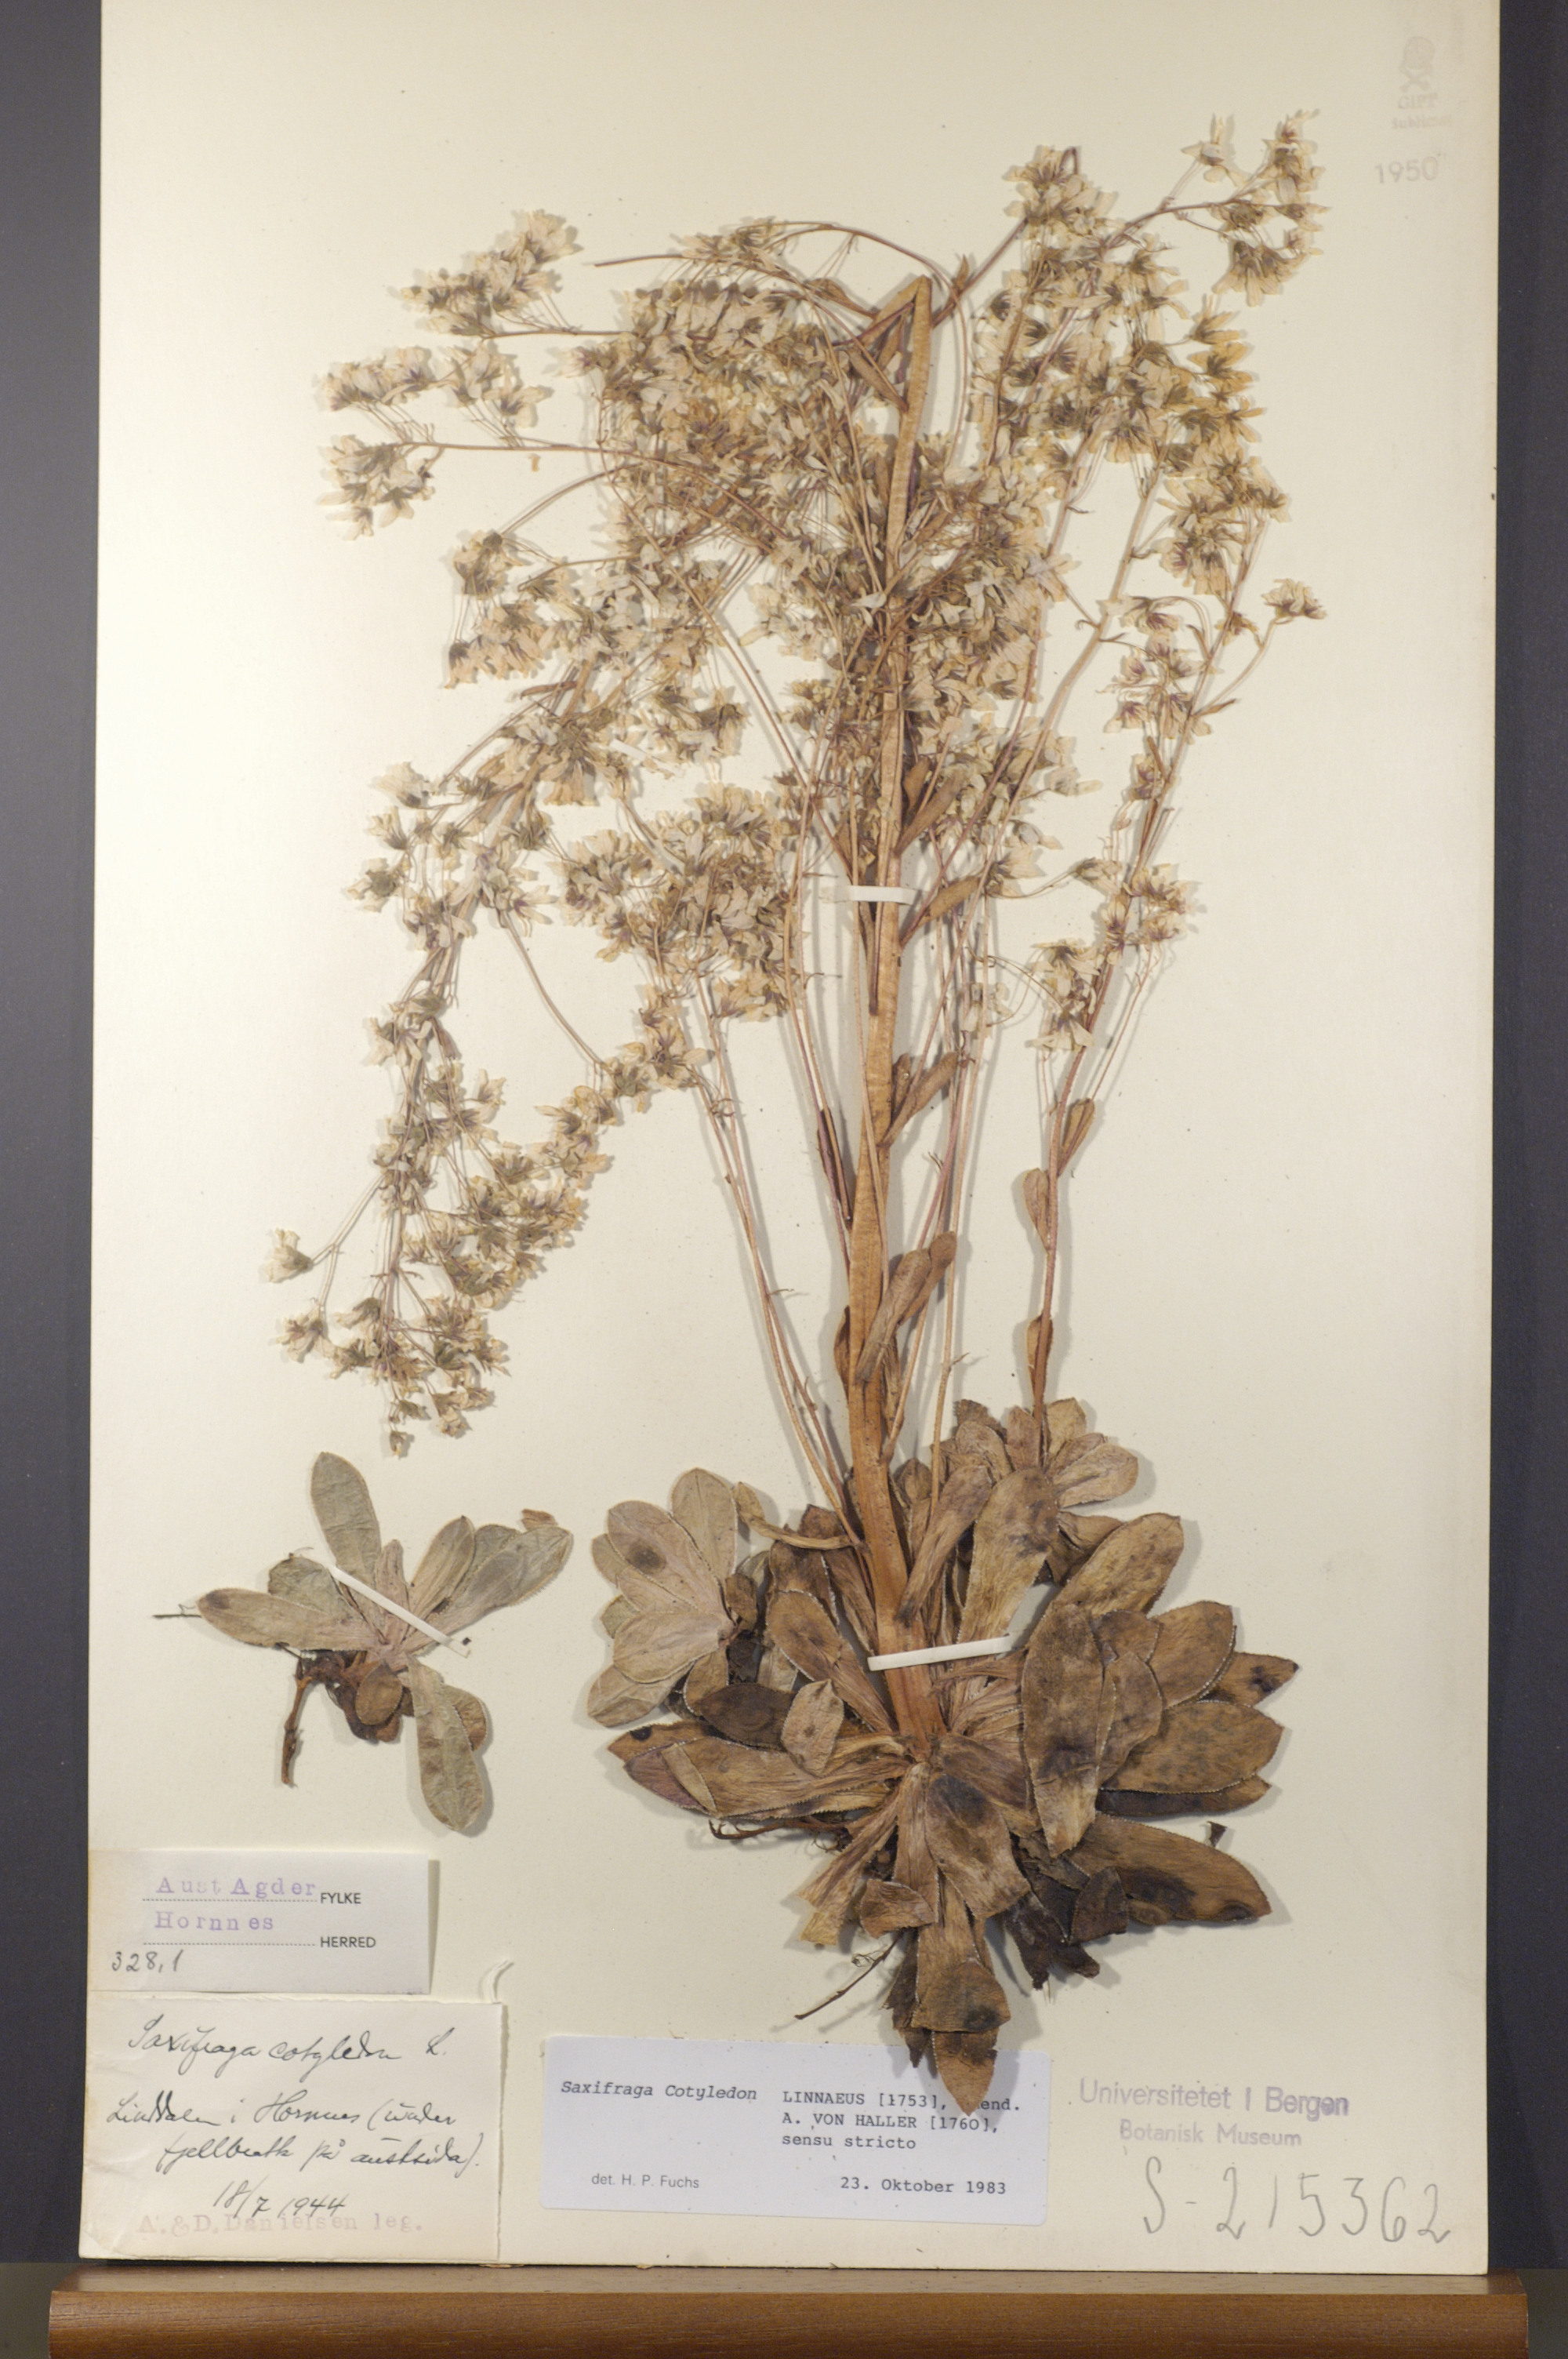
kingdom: Plantae
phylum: Tracheophyta
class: Magnoliopsida
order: Saxifragales
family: Saxifragaceae
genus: Saxifraga
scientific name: Saxifraga cotyledon
